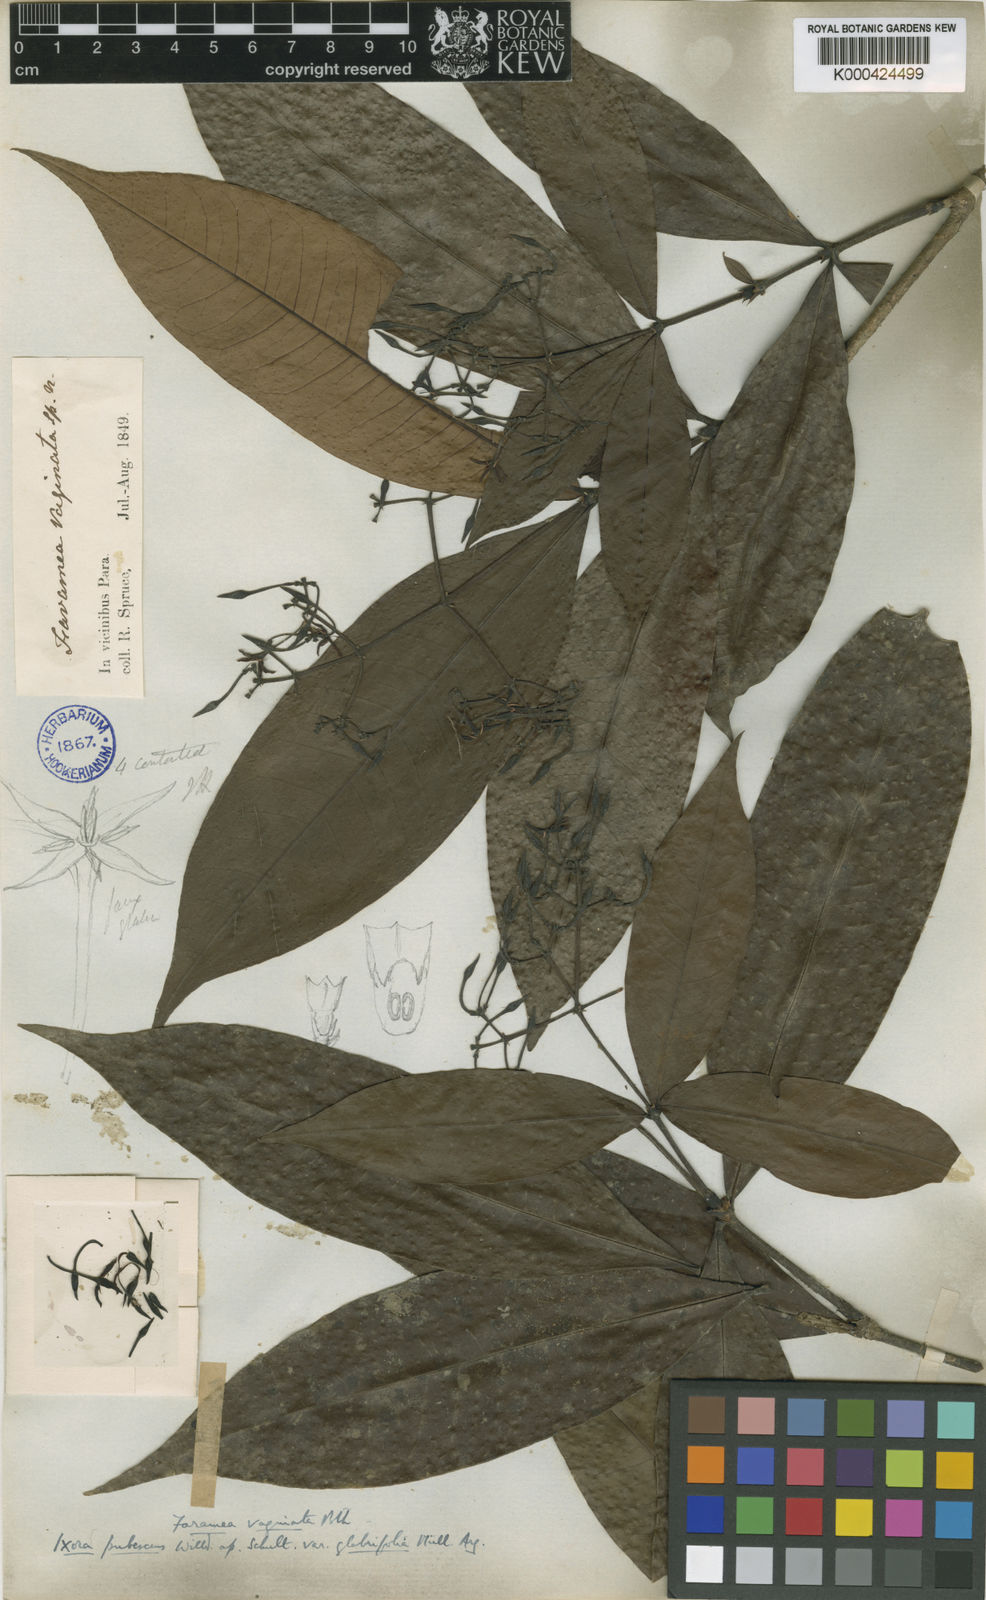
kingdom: Plantae
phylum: Tracheophyta
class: Magnoliopsida
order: Gentianales
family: Rubiaceae
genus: Ixora
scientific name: Ixora
